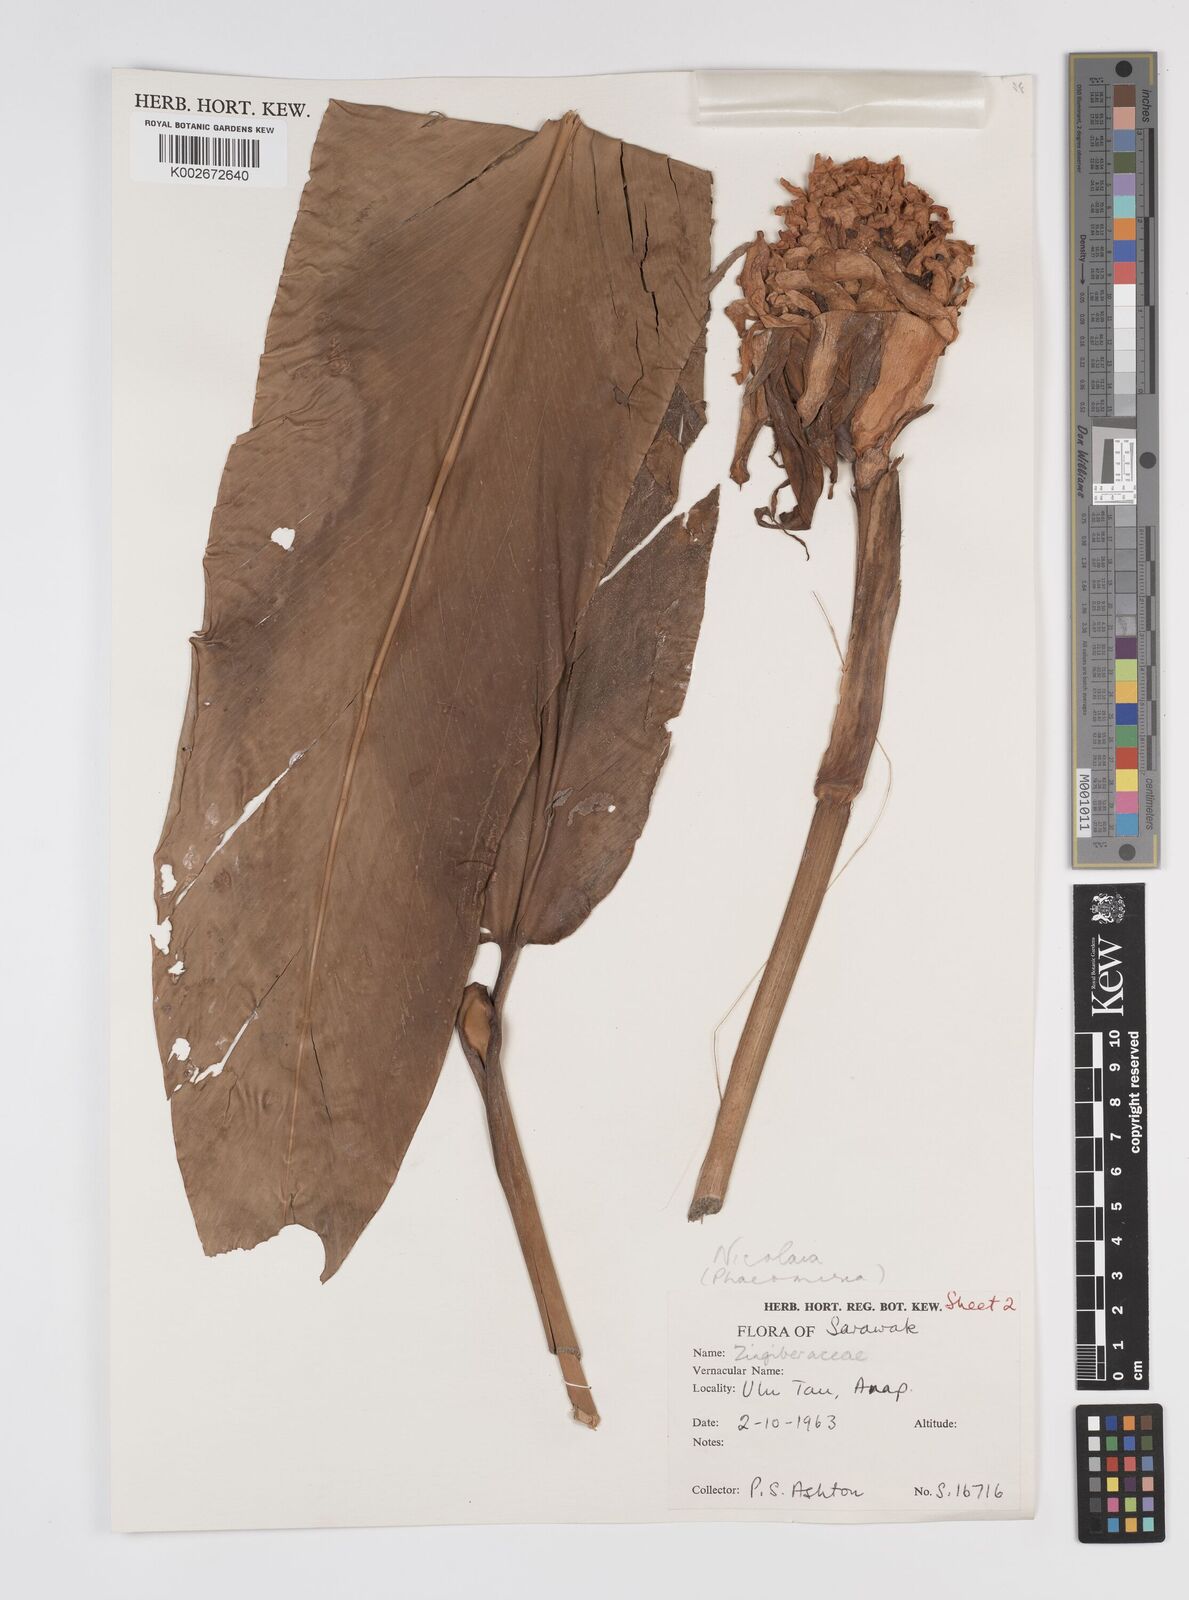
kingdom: Plantae
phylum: Tracheophyta
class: Liliopsida
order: Zingiberales
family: Zingiberaceae
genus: Etlingera
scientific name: Etlingera elatior
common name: Philippine waxflower
